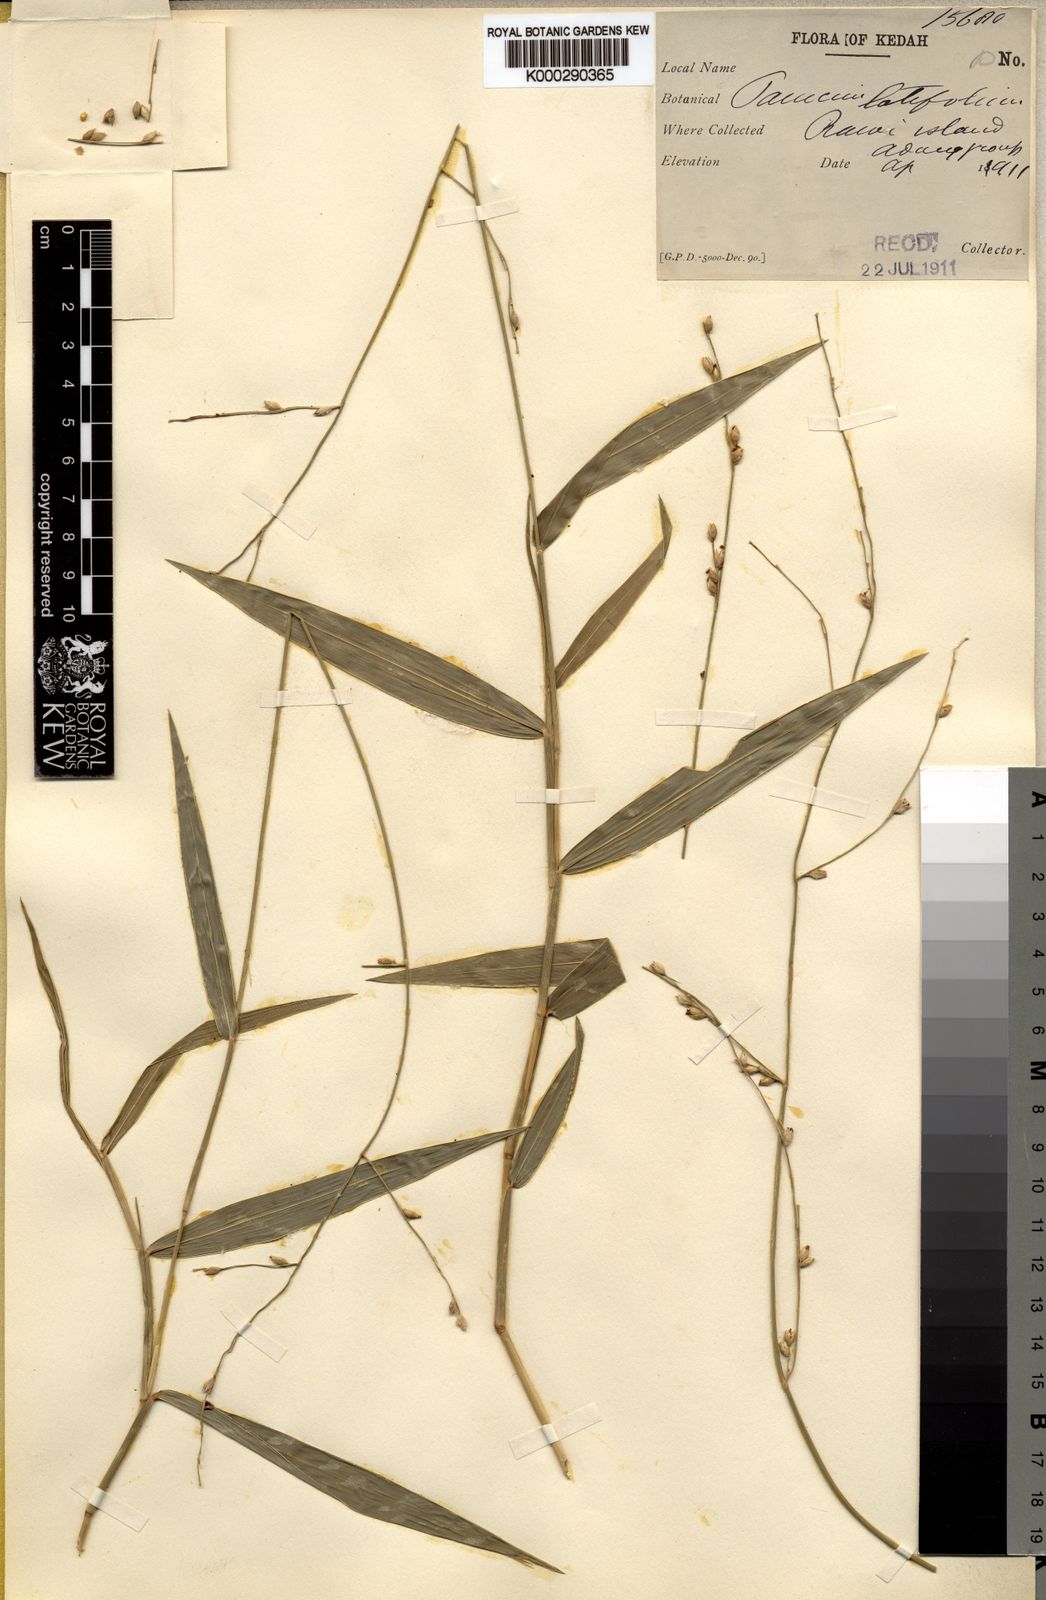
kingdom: Plantae
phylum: Tracheophyta
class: Liliopsida
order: Poales
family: Poaceae
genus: Acroceras
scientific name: Acroceras tonkinense
